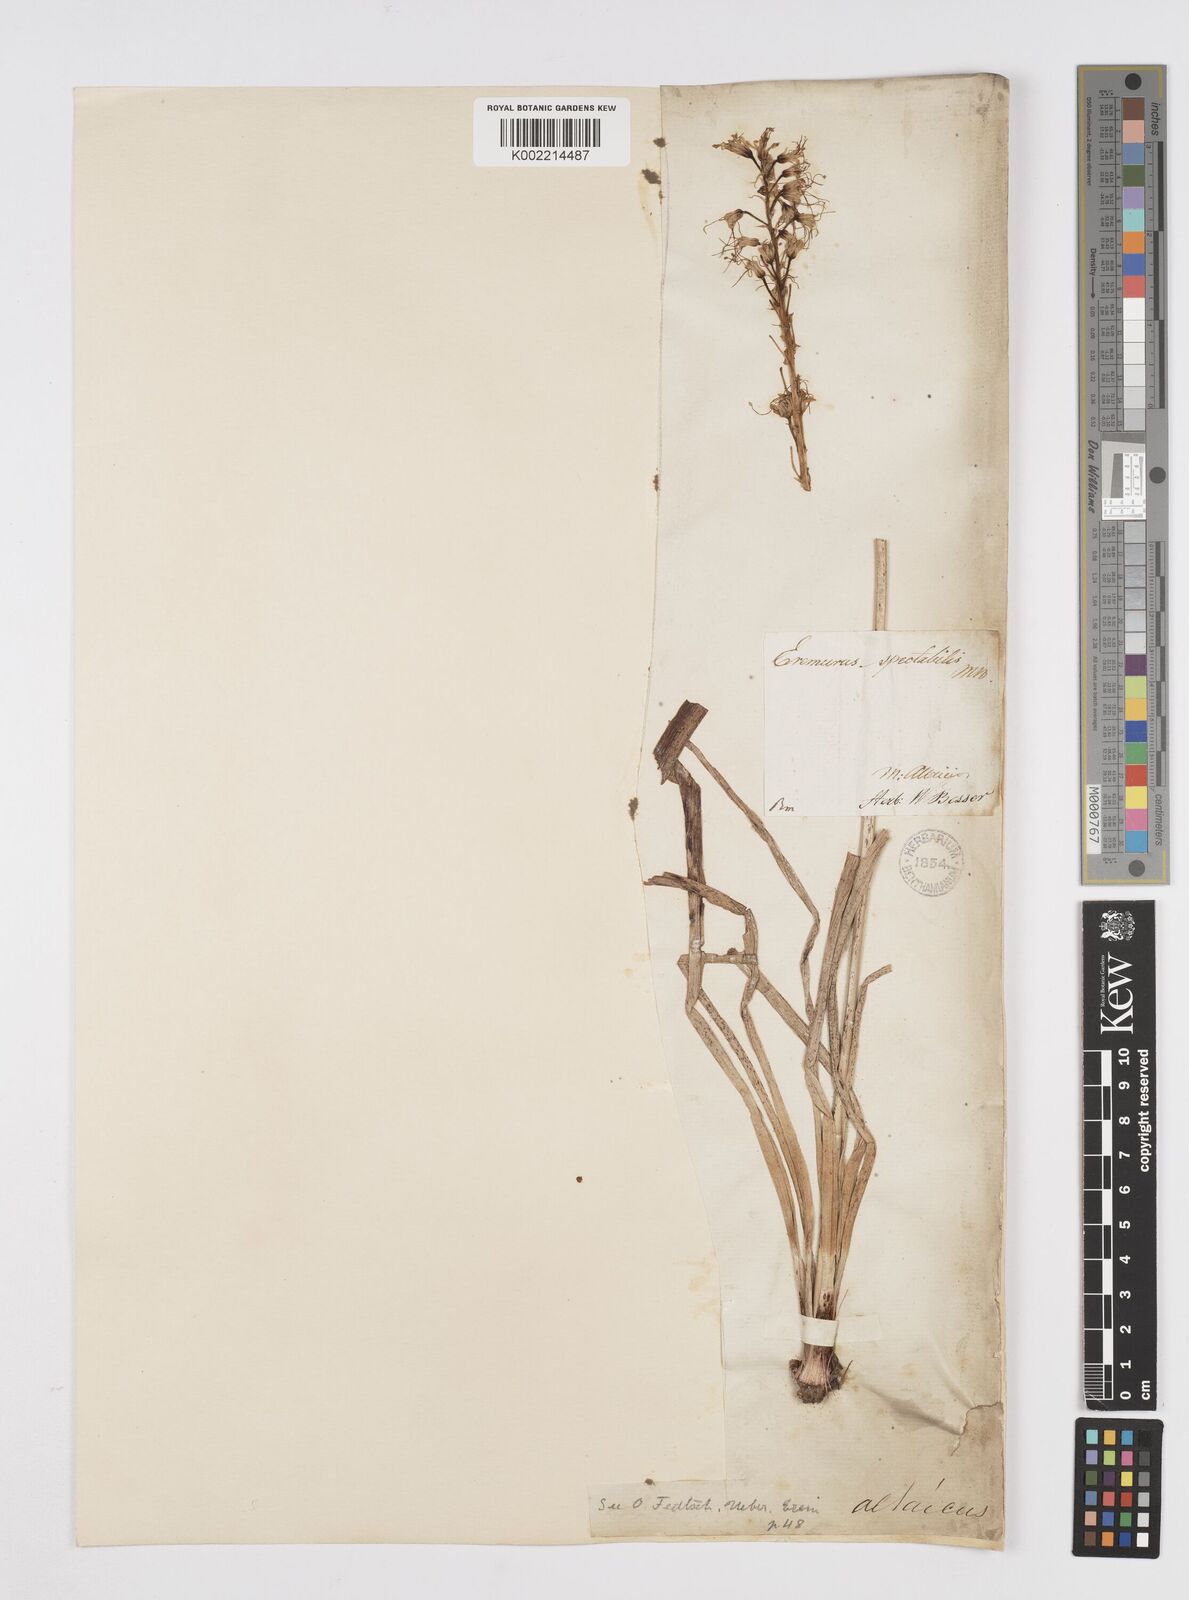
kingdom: Plantae
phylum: Tracheophyta
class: Liliopsida
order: Asparagales
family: Asphodelaceae
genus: Eremurus
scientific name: Eremurus altaicus
